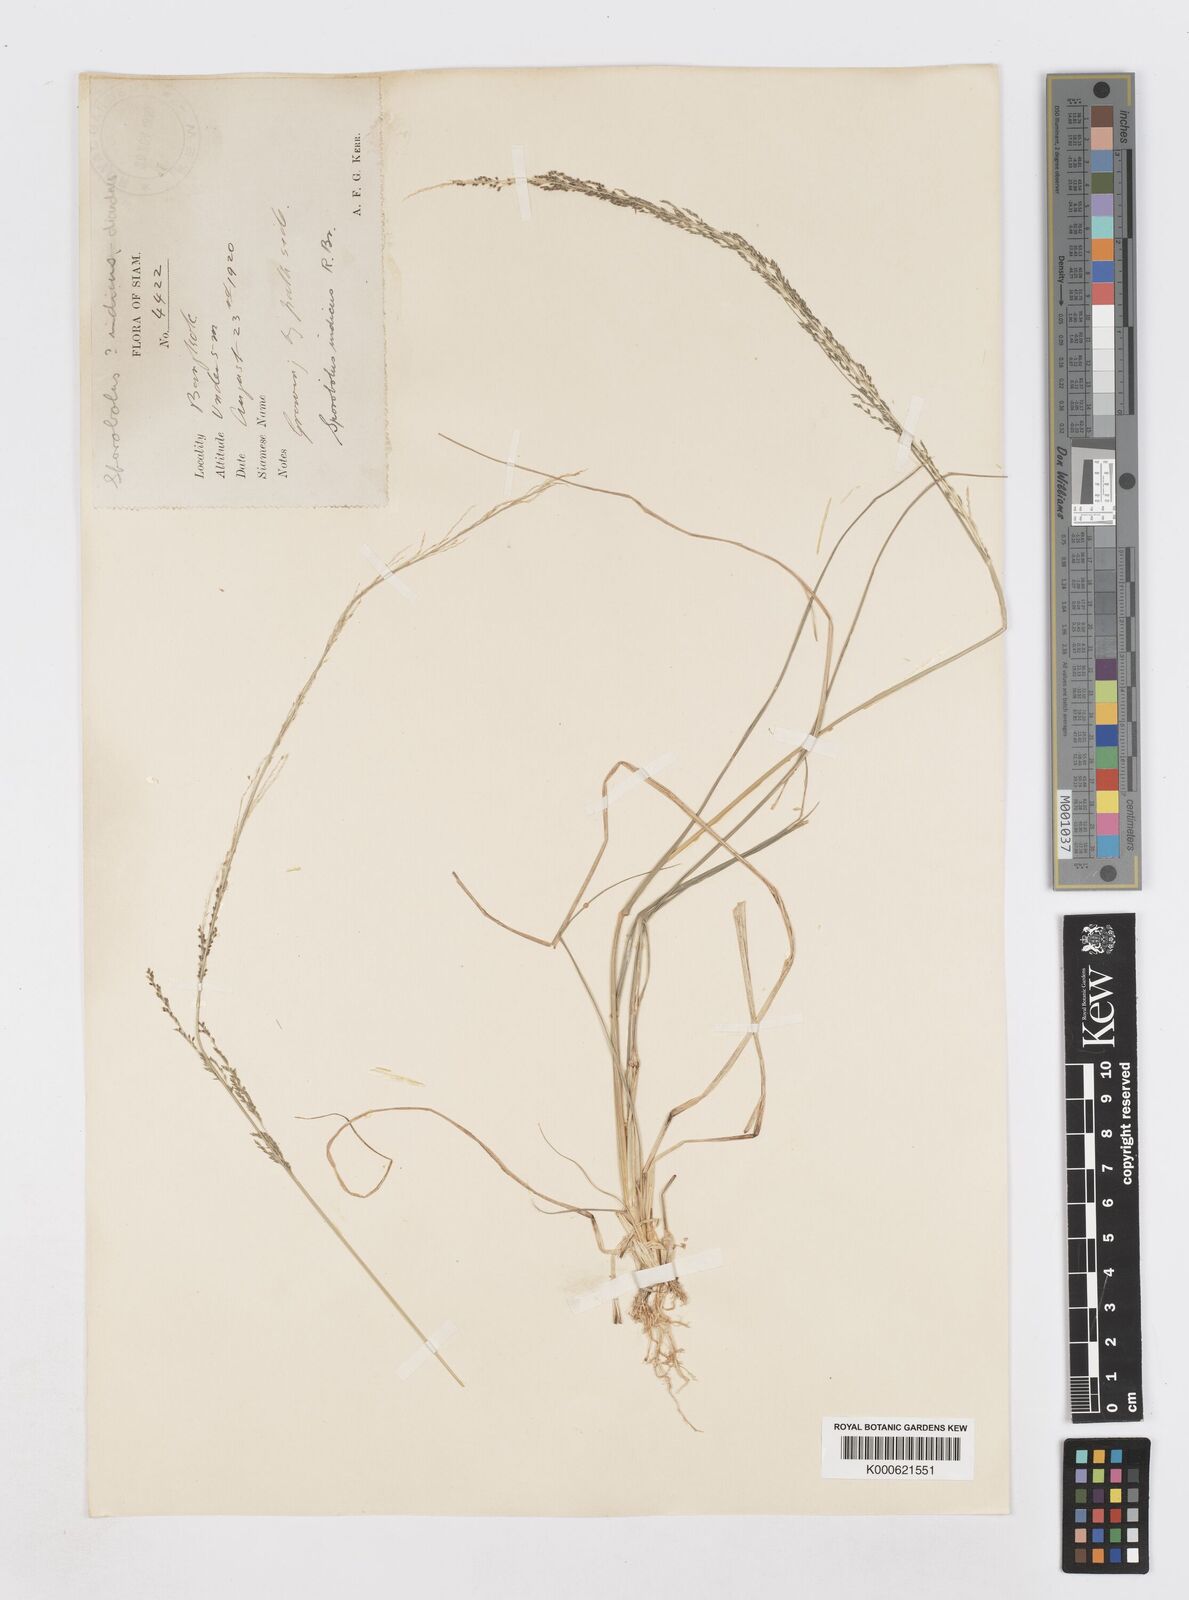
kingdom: Plantae
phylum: Tracheophyta
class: Liliopsida
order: Poales
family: Poaceae
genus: Sporobolus
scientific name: Sporobolus diandrus
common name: Tussock dropseed
